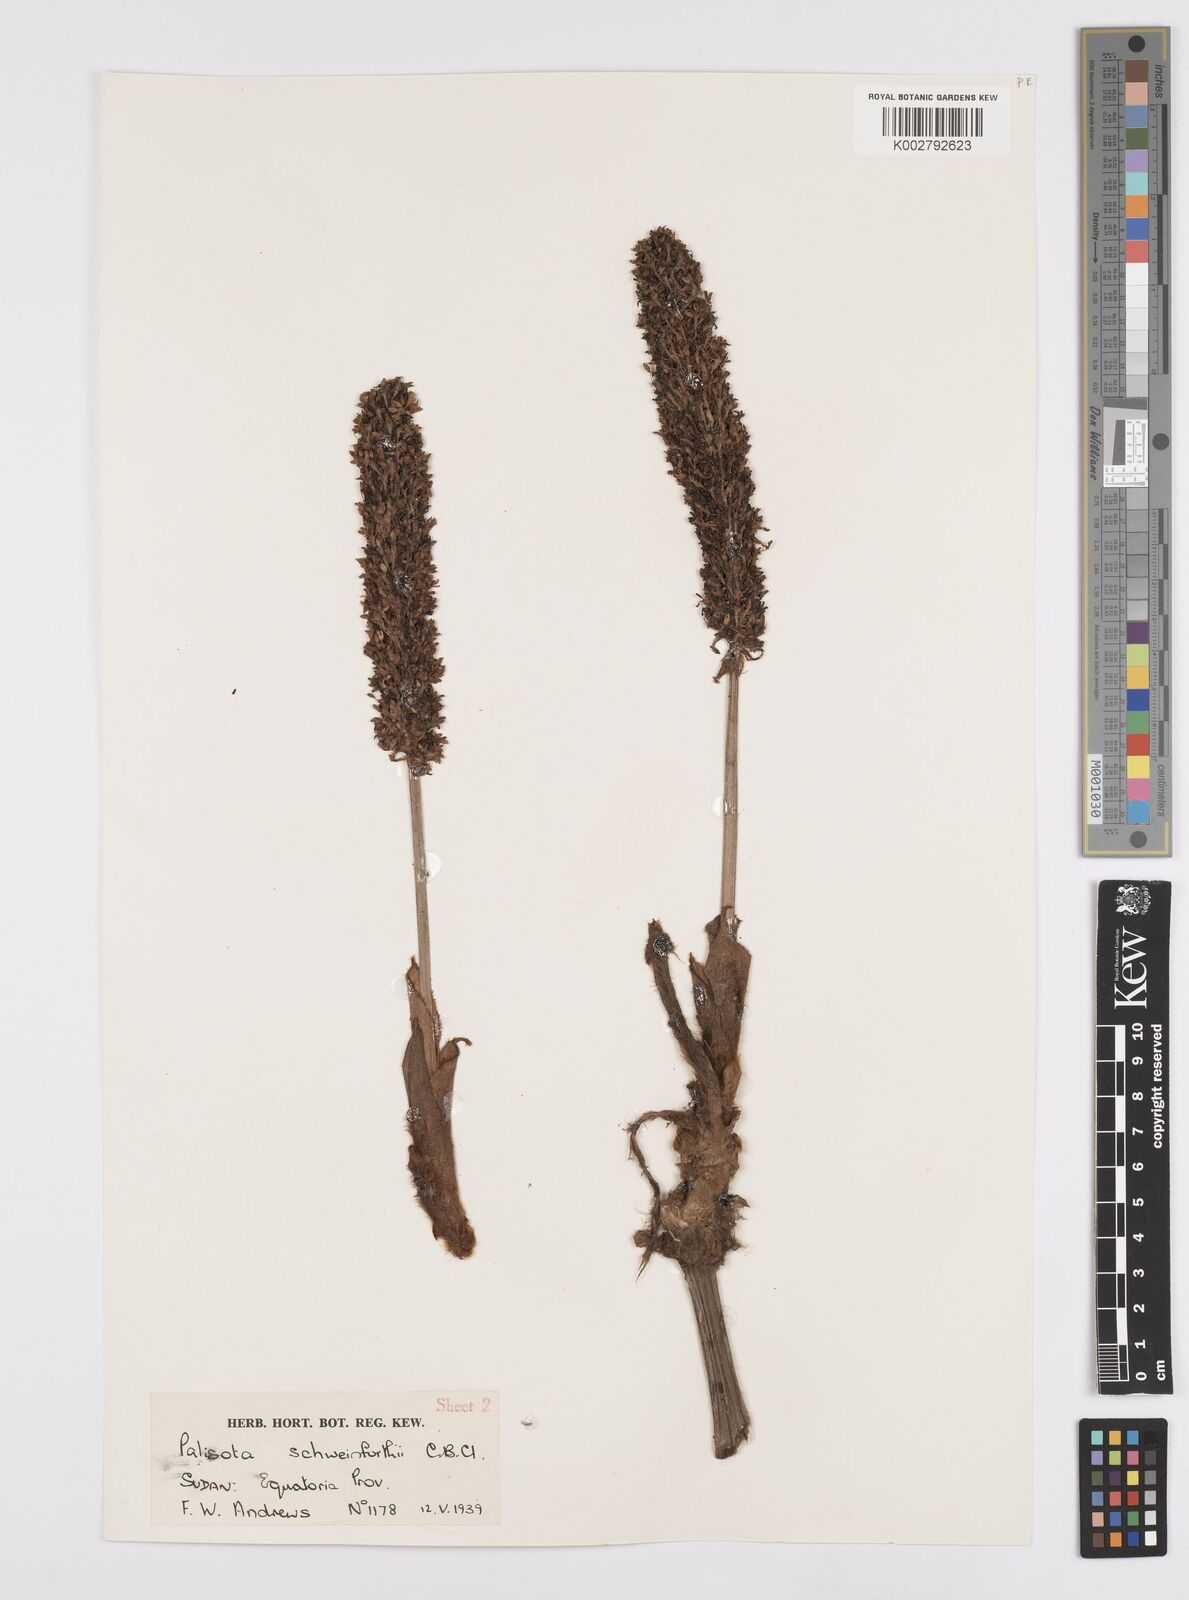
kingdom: Plantae
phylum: Tracheophyta
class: Liliopsida
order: Commelinales
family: Commelinaceae
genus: Palisota
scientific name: Palisota schweinfurthii
